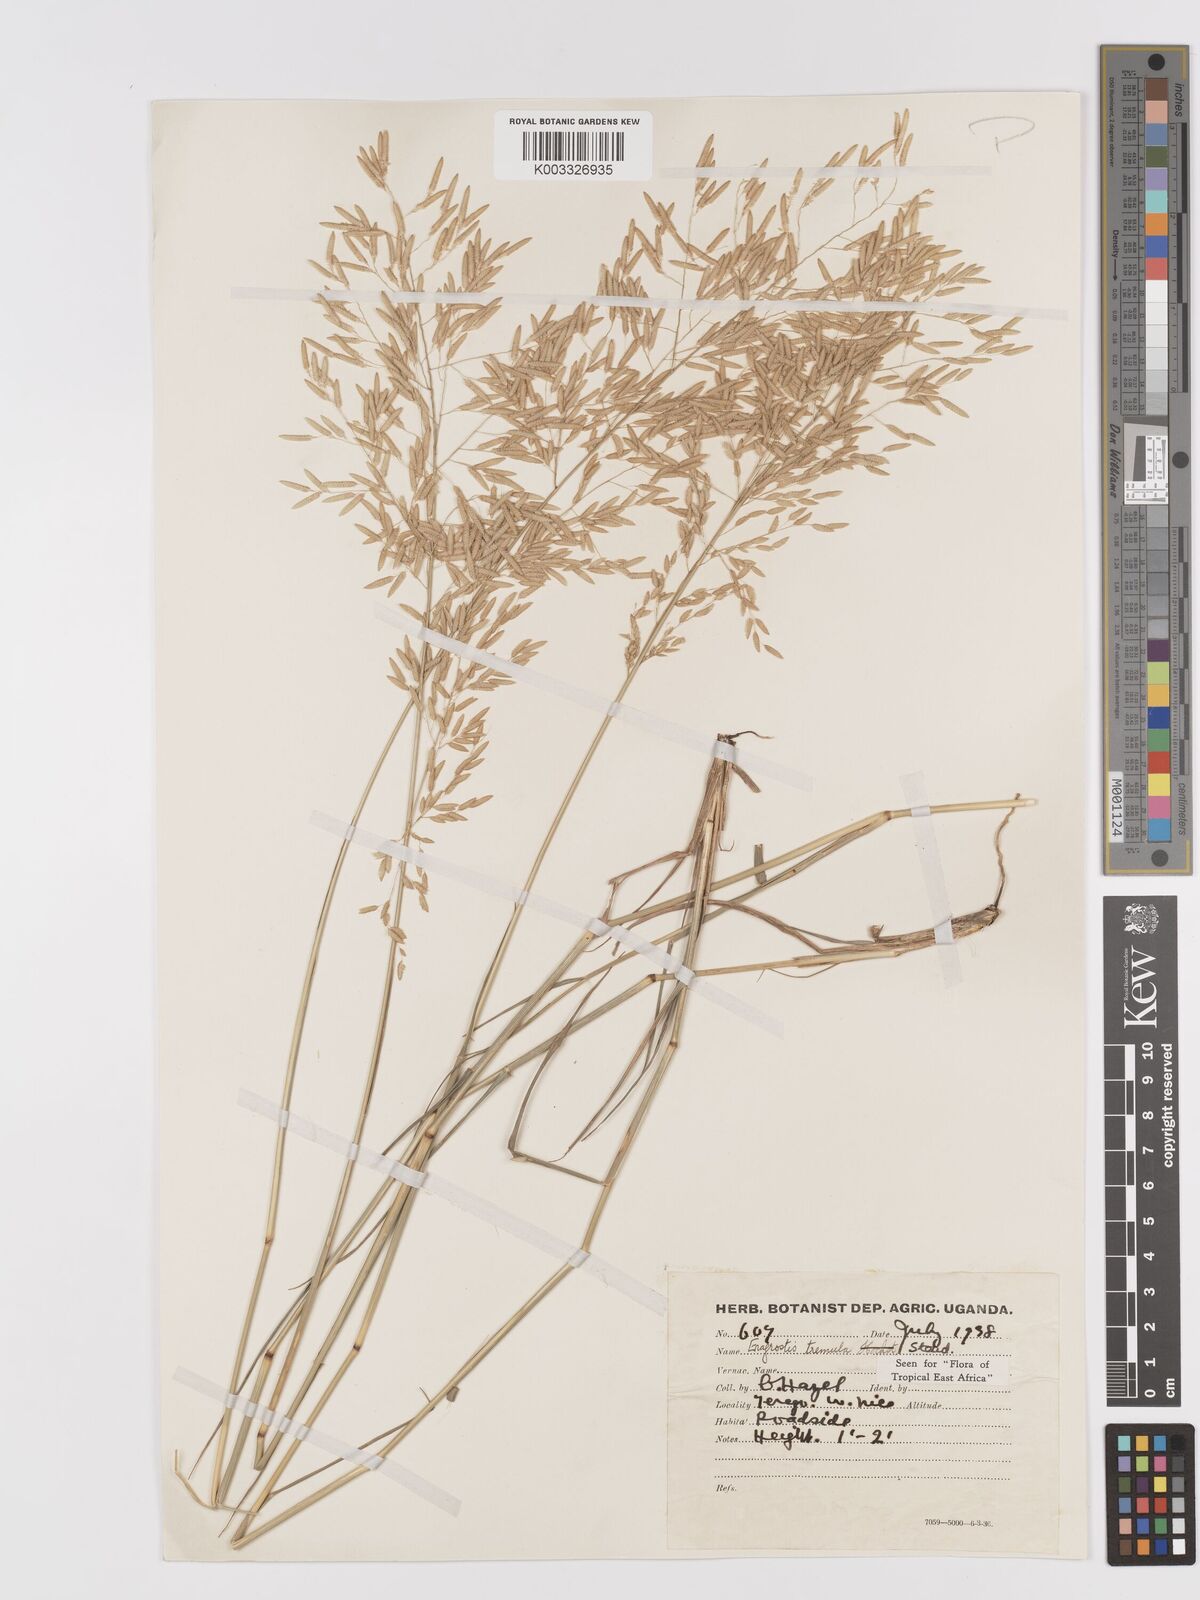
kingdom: Plantae
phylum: Tracheophyta
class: Liliopsida
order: Poales
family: Poaceae
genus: Eragrostis
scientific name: Eragrostis tremula
